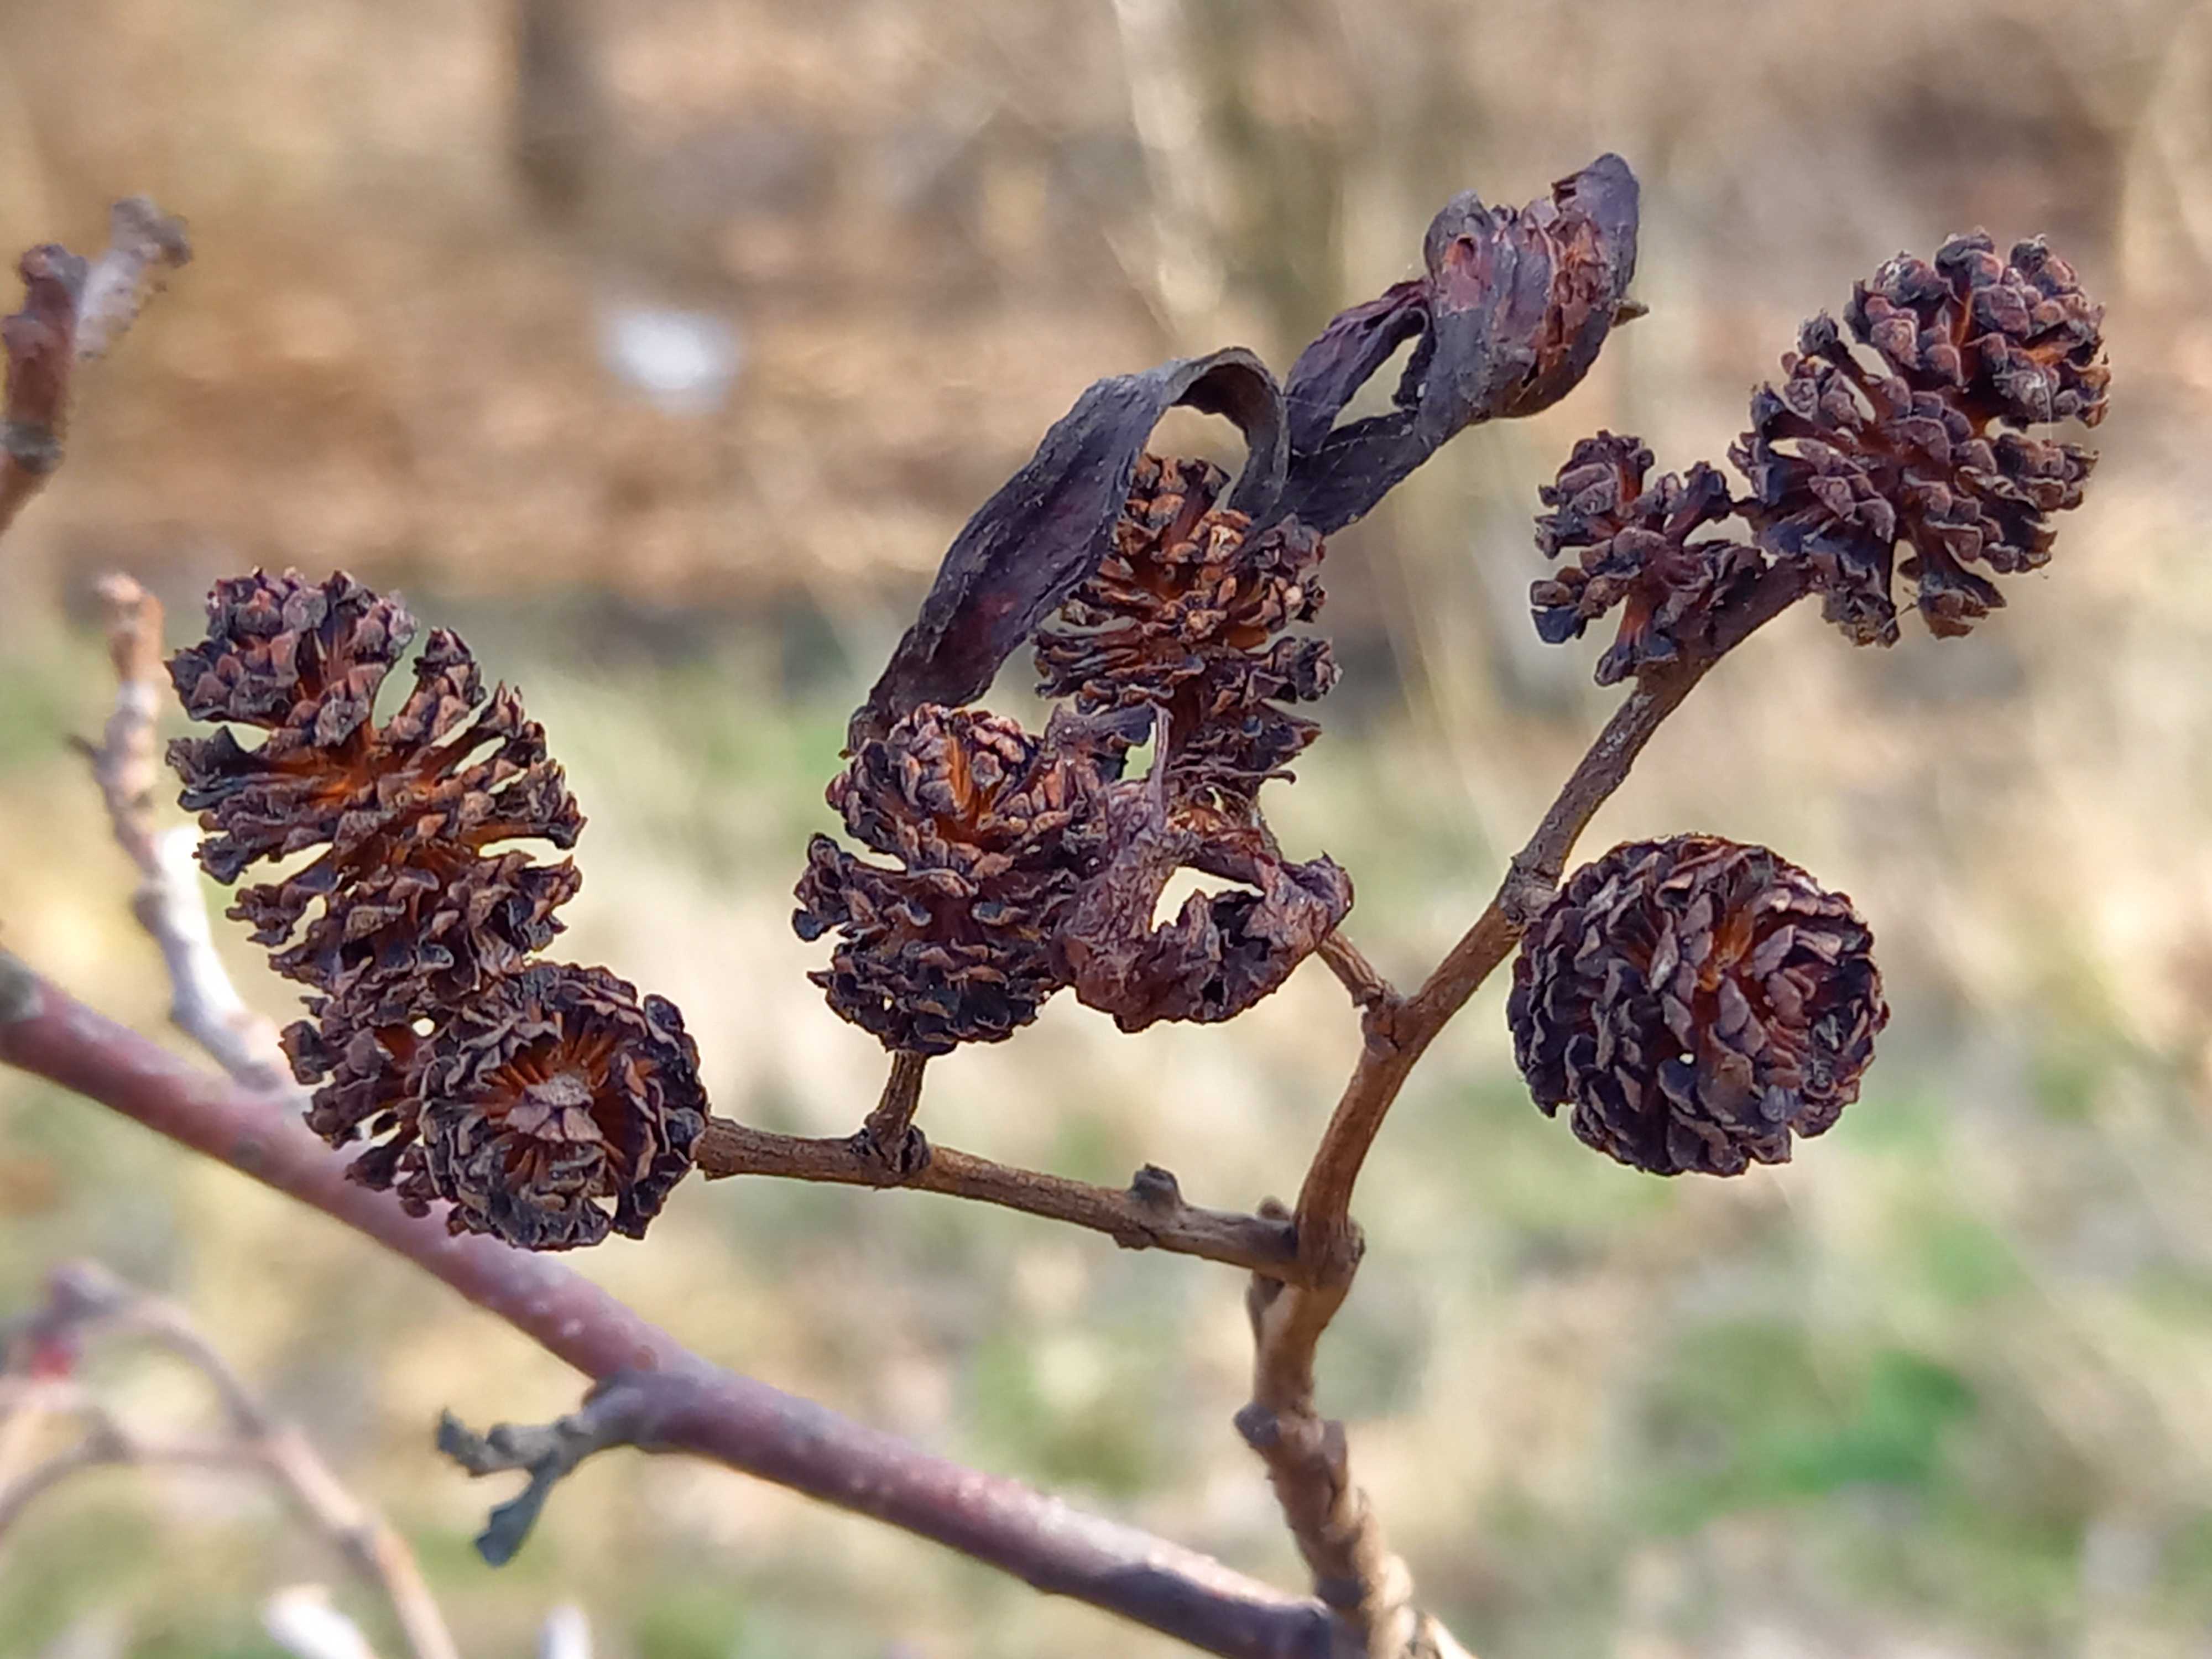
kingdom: Fungi
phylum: Ascomycota
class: Taphrinomycetes
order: Taphrinales
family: Taphrinaceae
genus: Taphrina
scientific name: Taphrina alni
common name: Alder tongue
